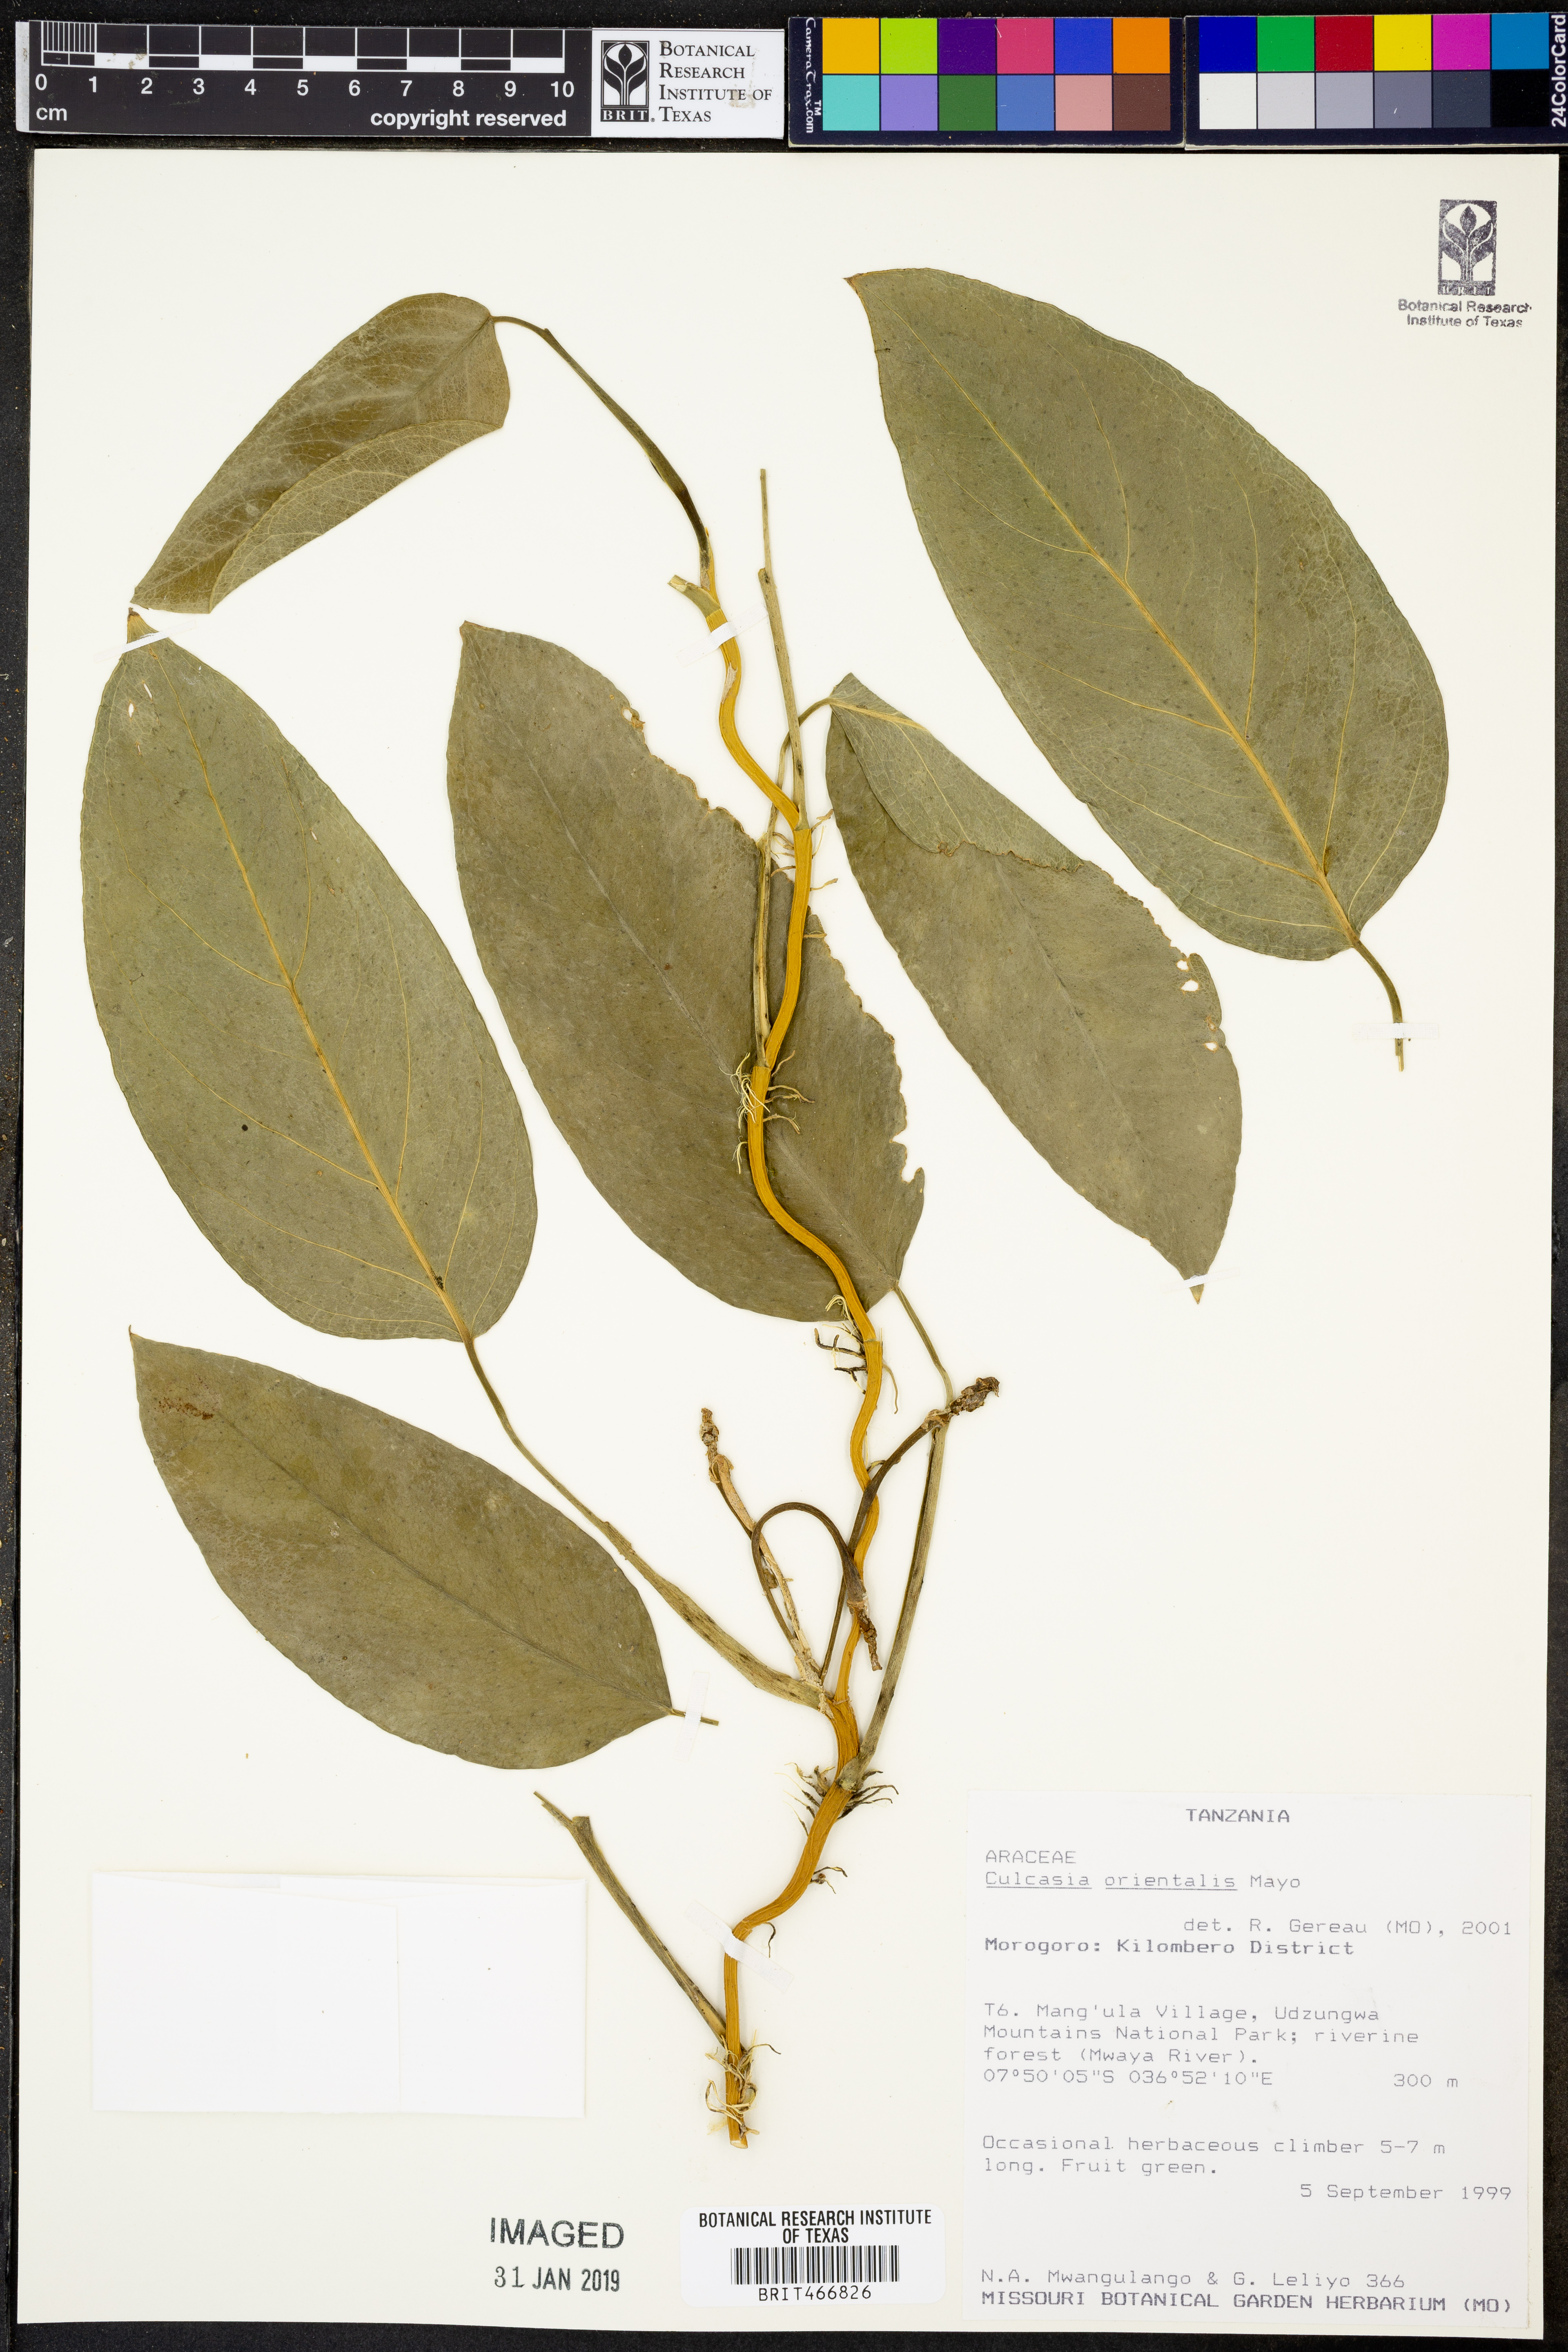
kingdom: Plantae
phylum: Tracheophyta
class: Liliopsida
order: Alismatales
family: Araceae
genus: Culcasia
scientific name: Culcasia orientalis
